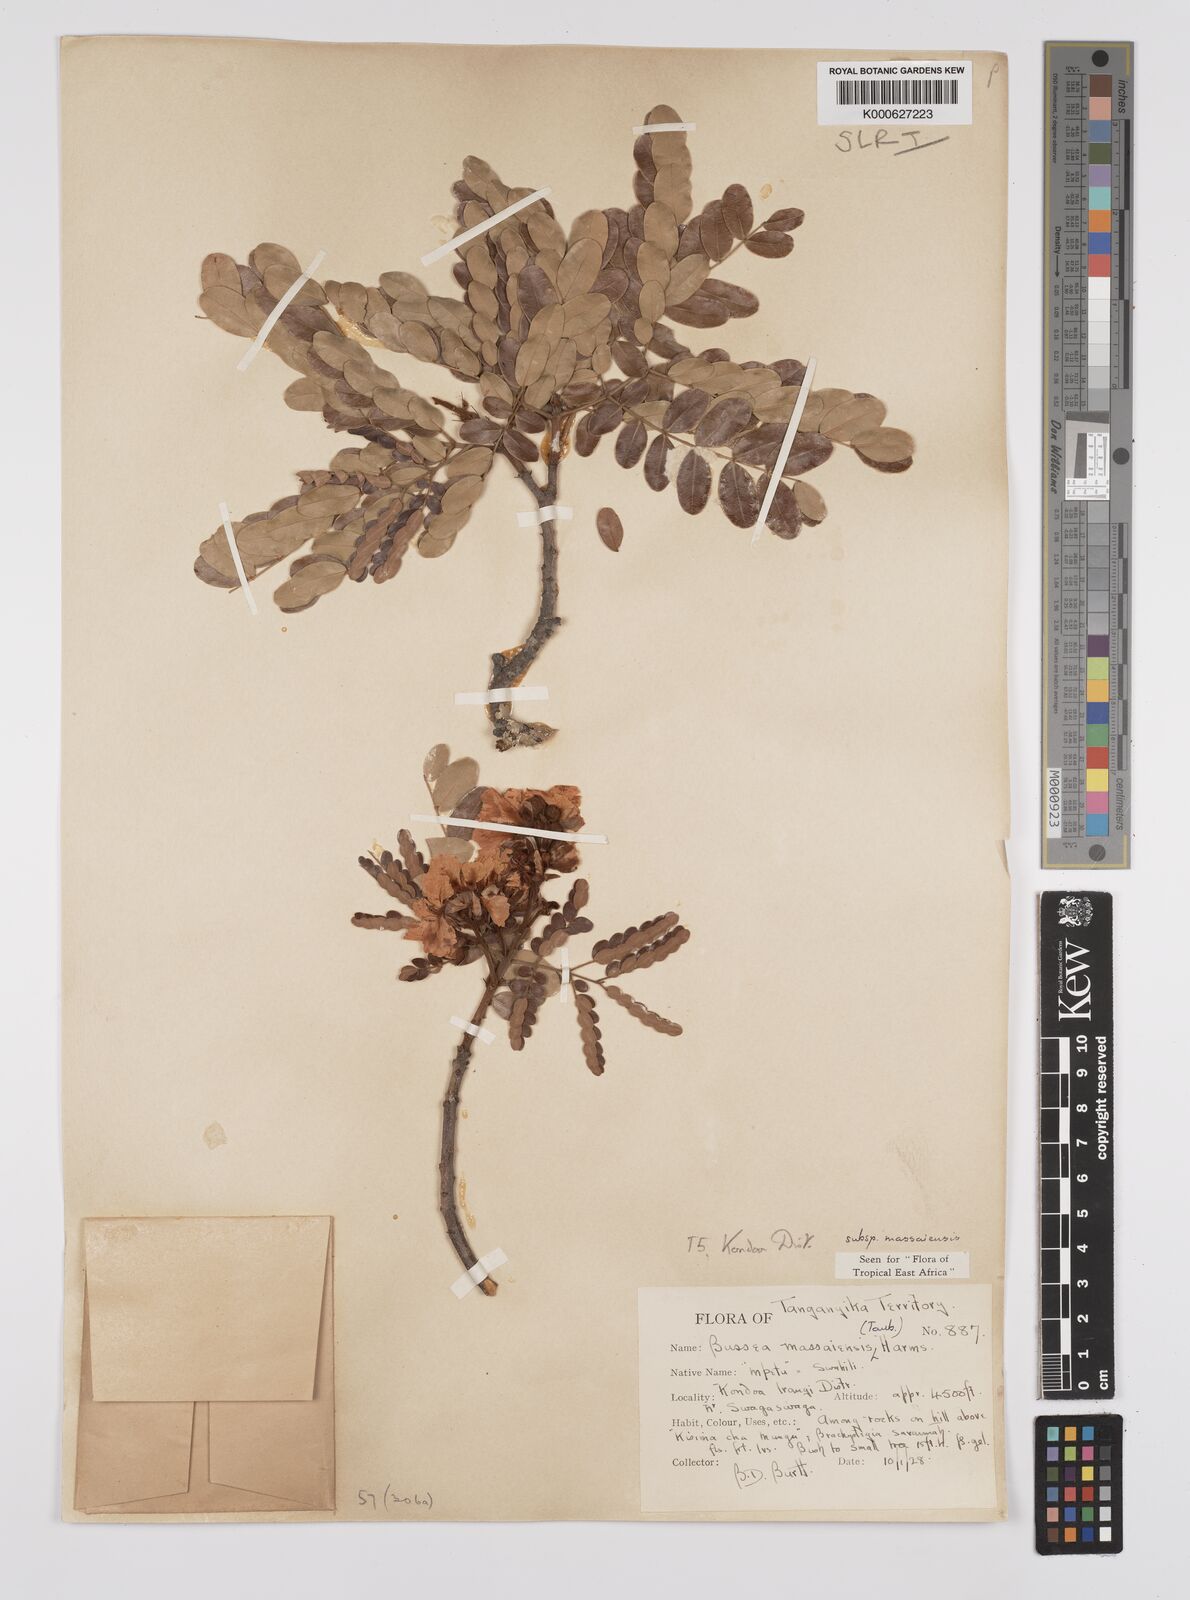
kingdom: Plantae
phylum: Tracheophyta
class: Magnoliopsida
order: Fabales
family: Fabaceae
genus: Bussea
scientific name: Bussea massaiensis
